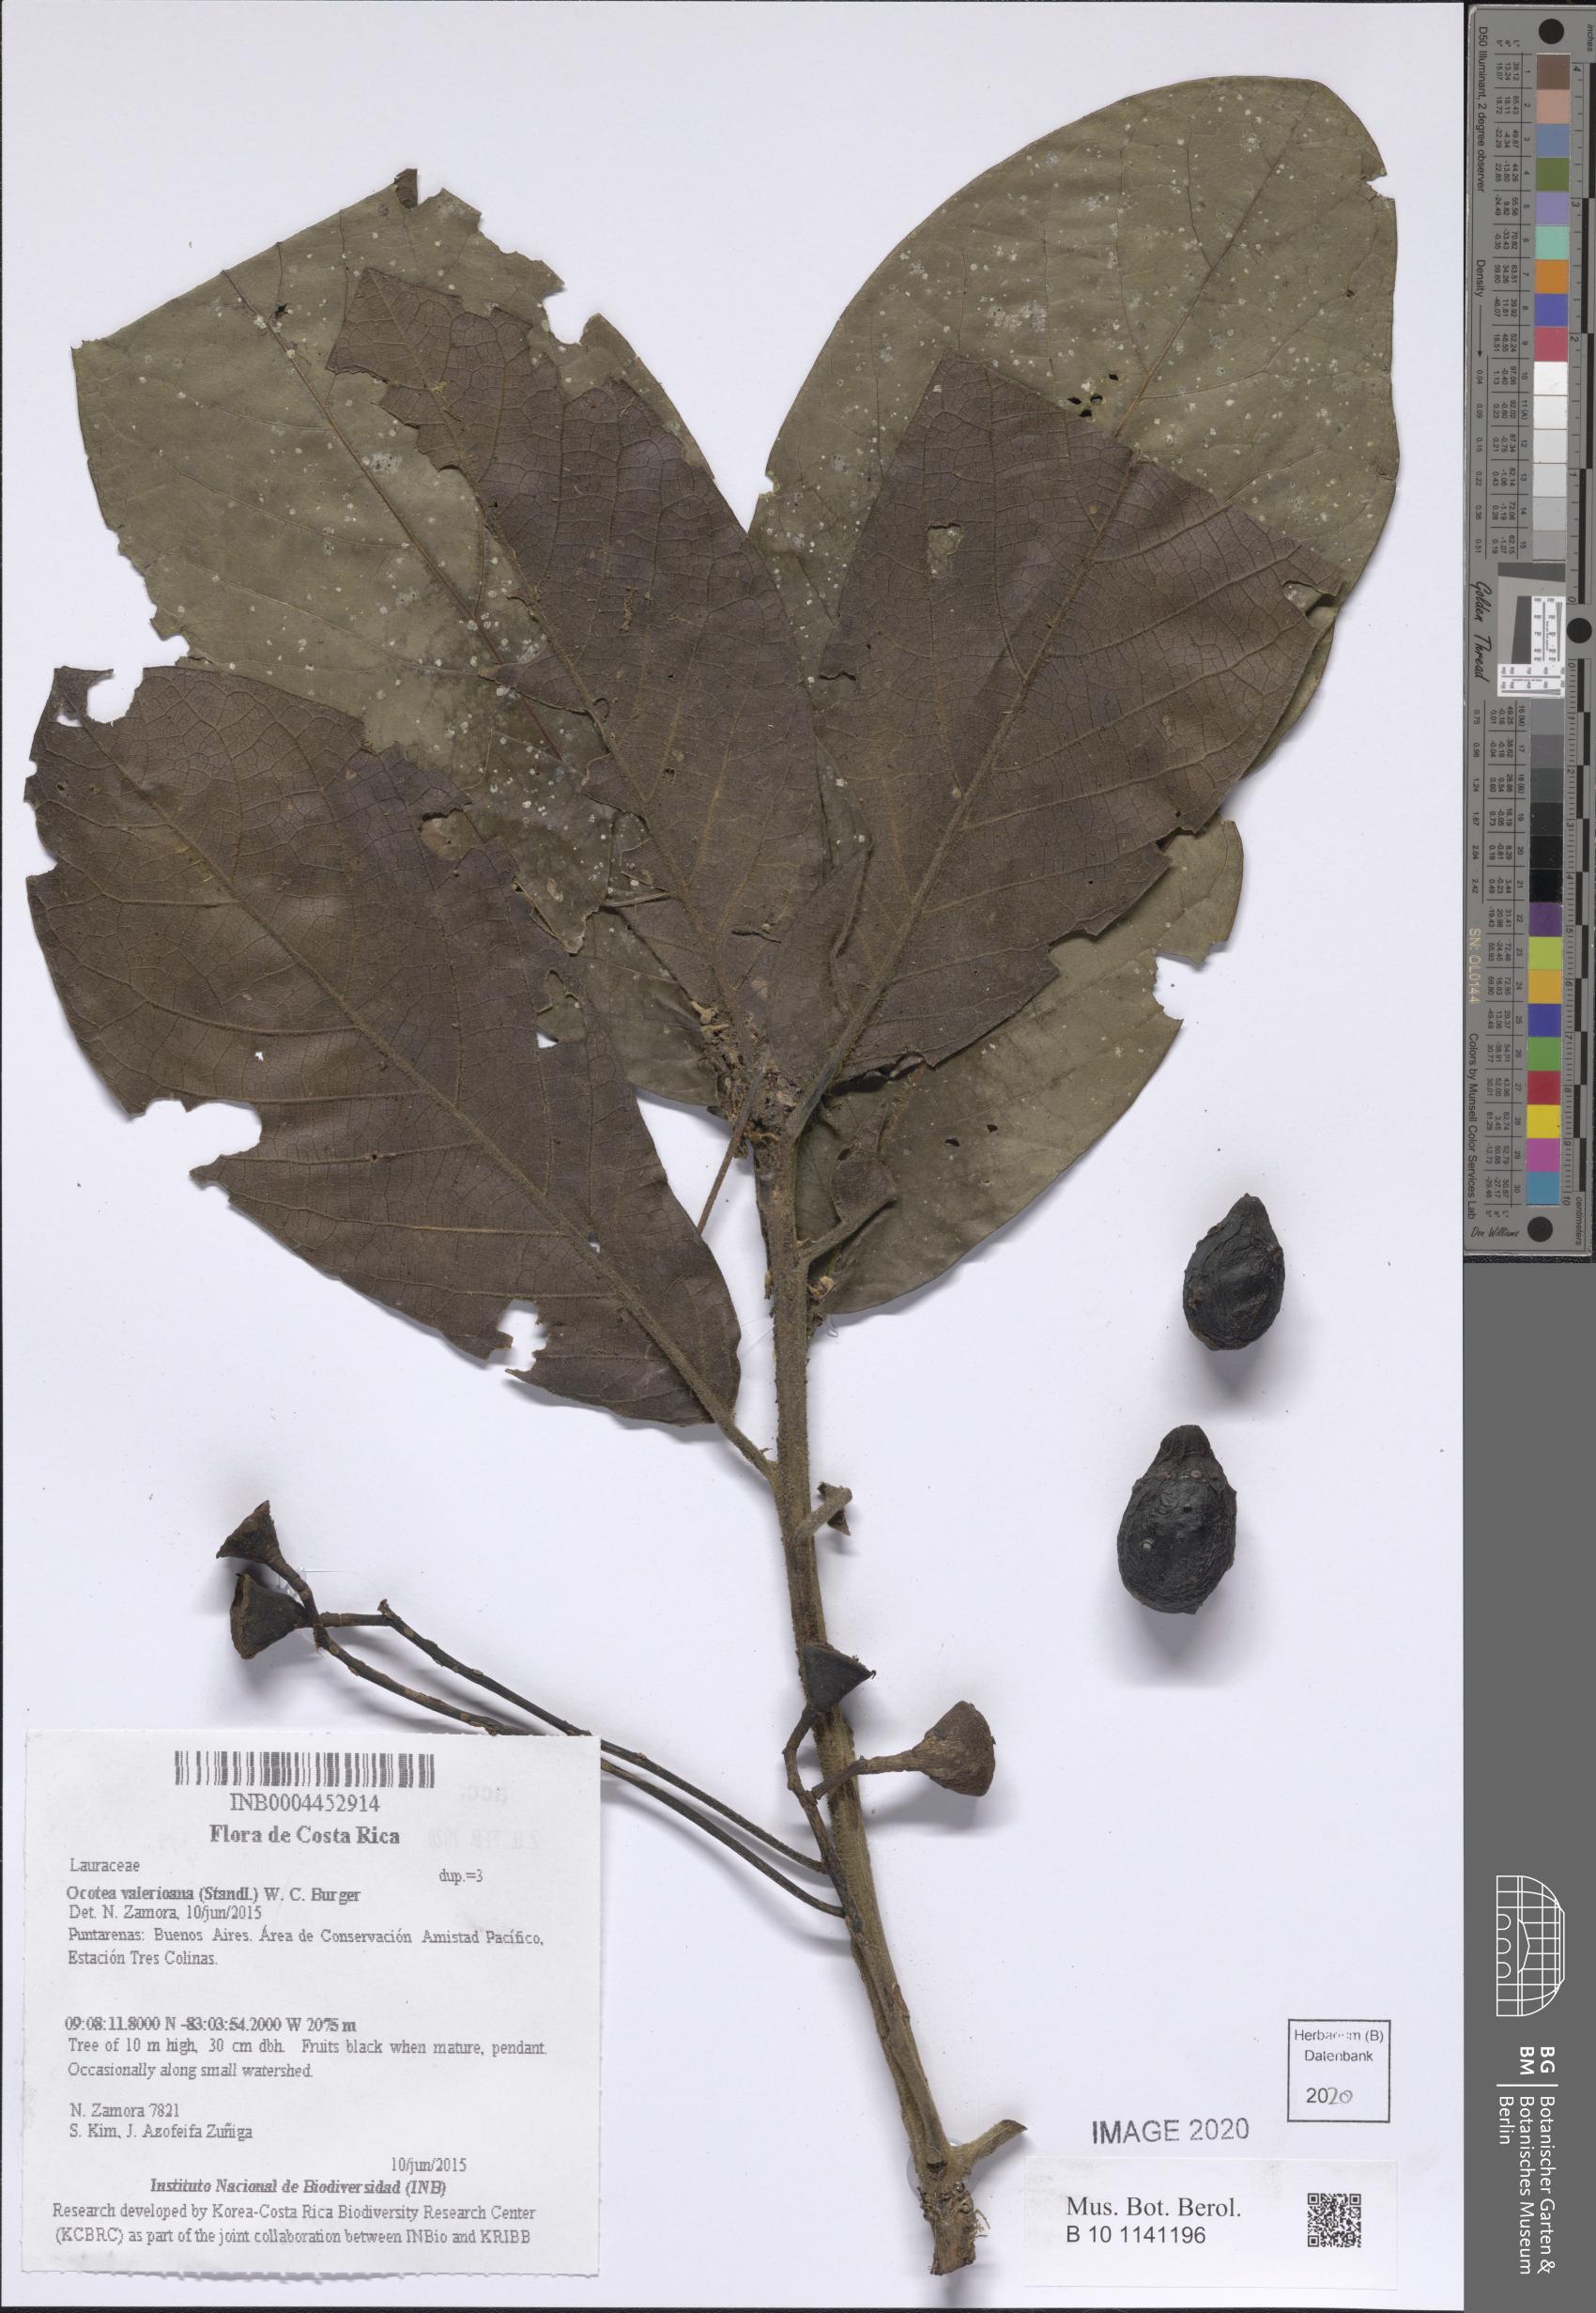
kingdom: Plantae
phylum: Tracheophyta
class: Magnoliopsida
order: Laurales
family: Lauraceae
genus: Ocotea
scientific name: Ocotea valerioana
